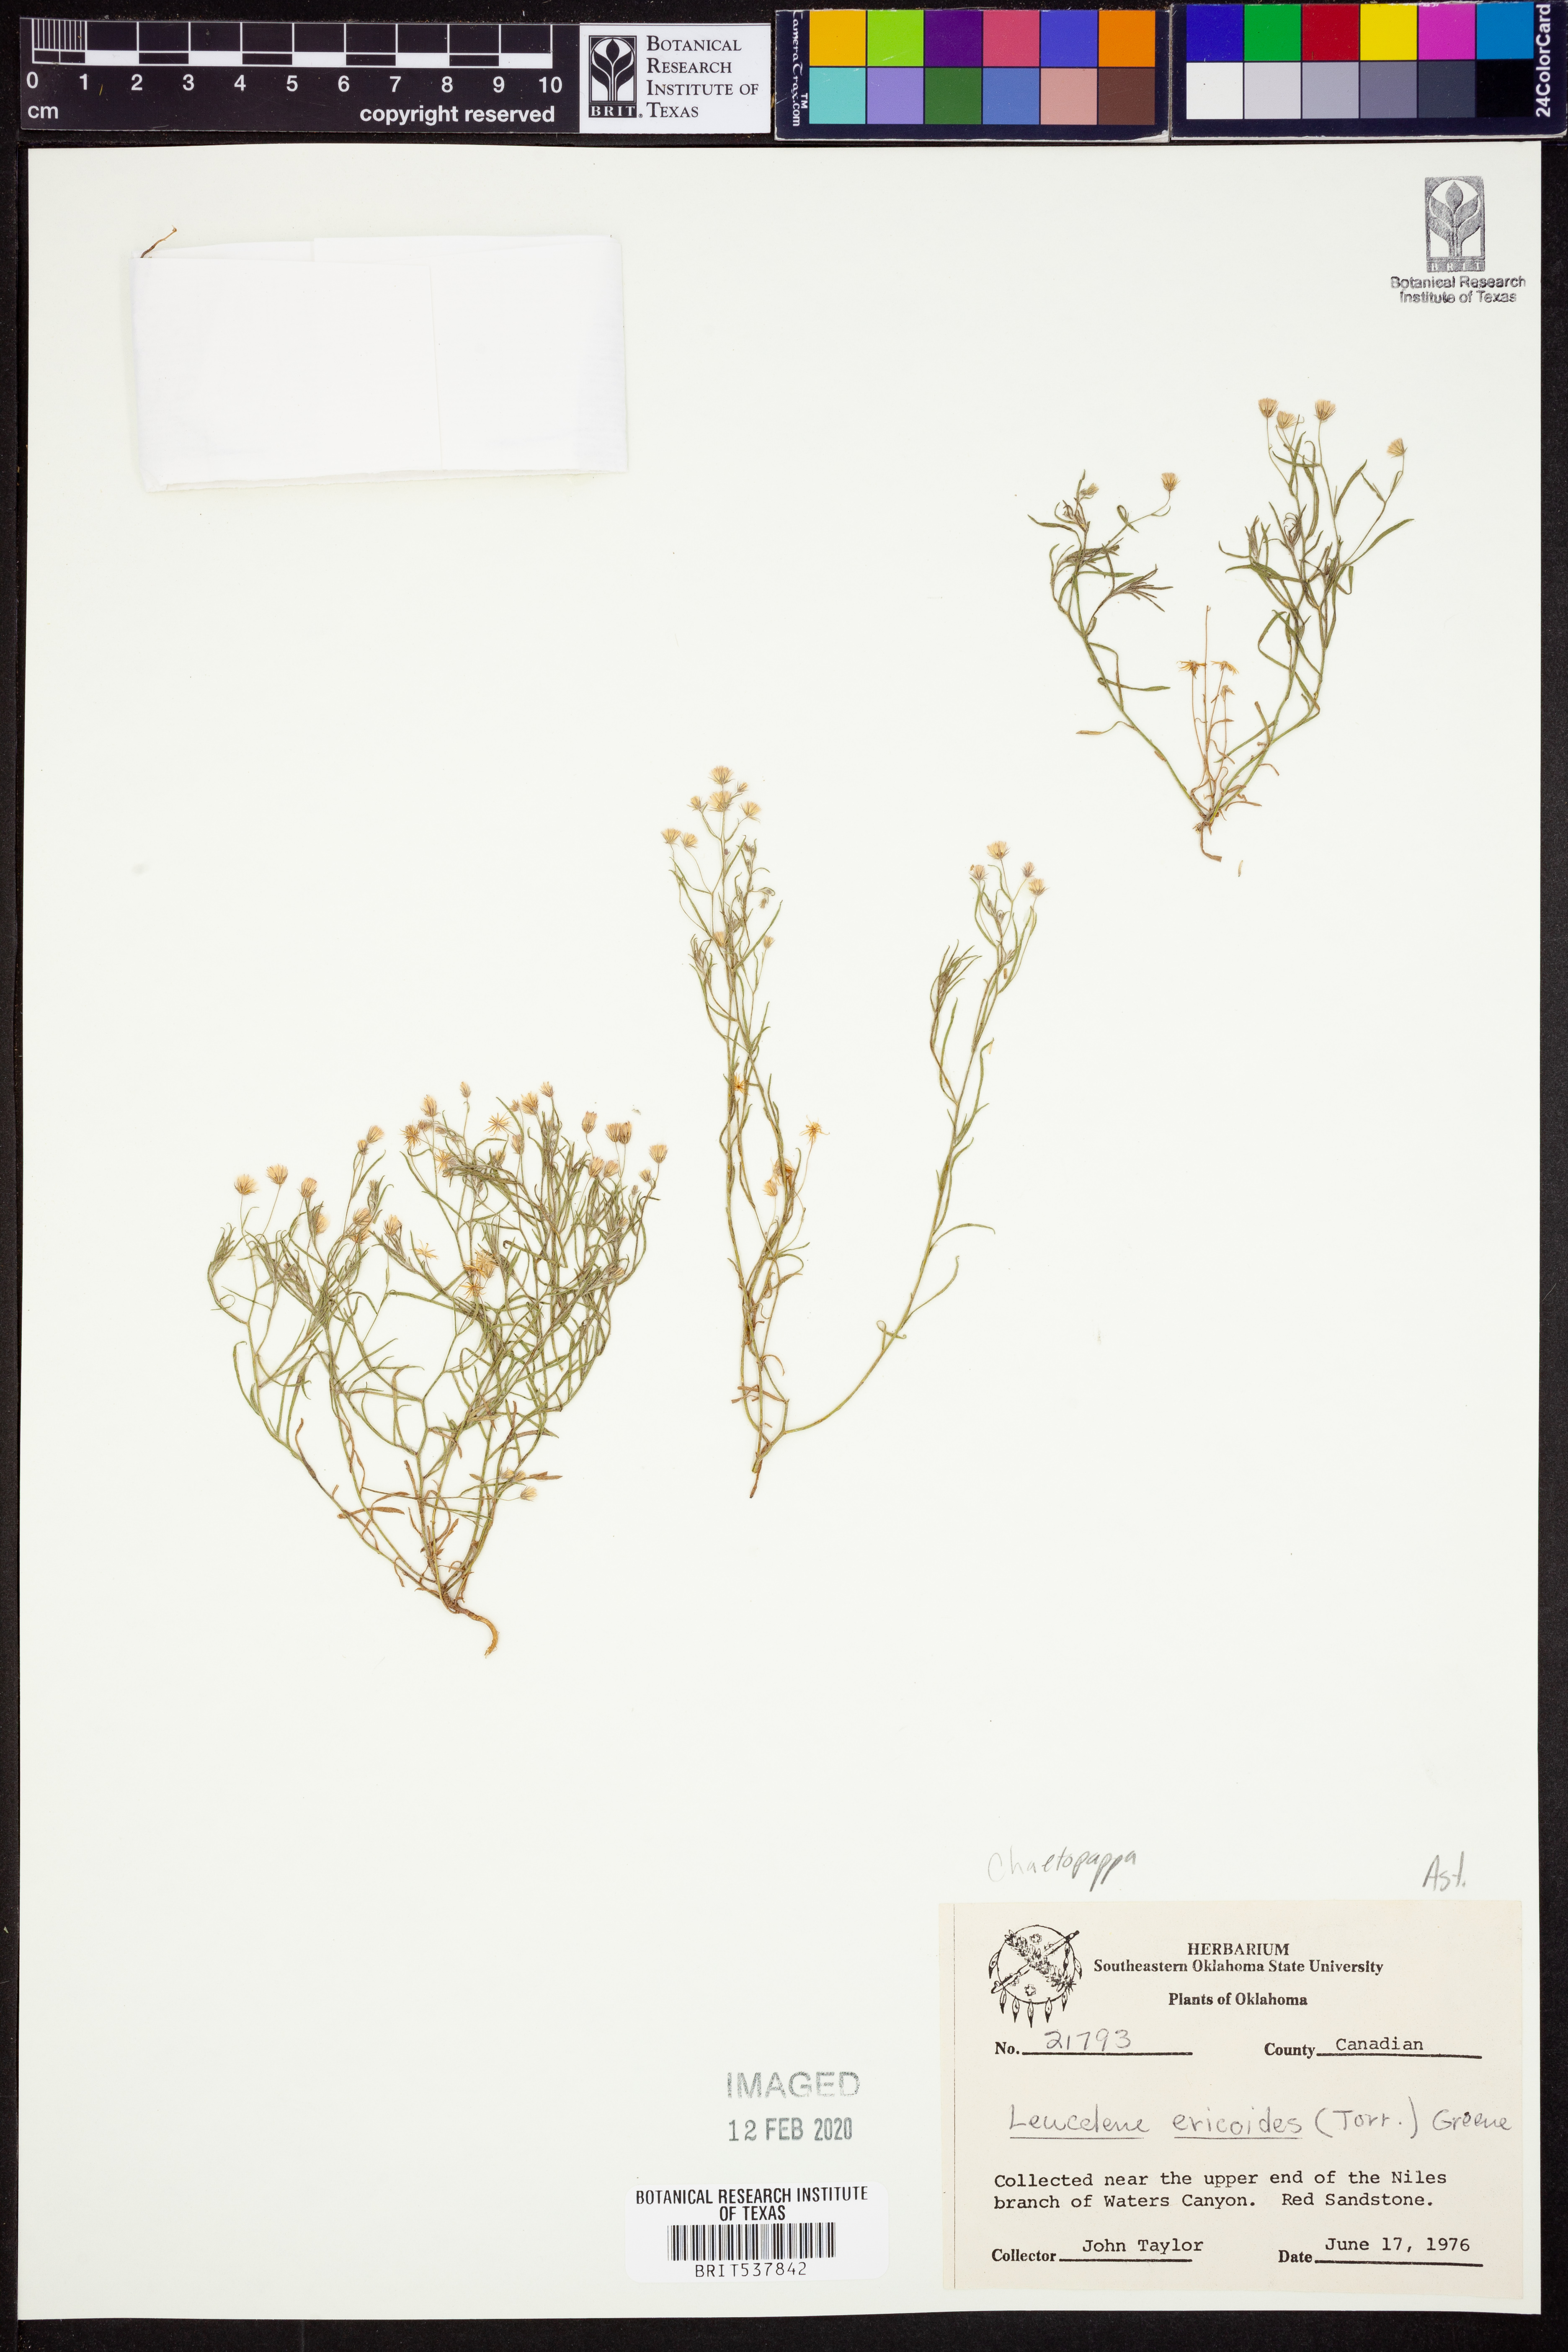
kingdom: Plantae
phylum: Tracheophyta
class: Magnoliopsida
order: Asterales
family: Asteraceae
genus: Chaetopappa
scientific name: Chaetopappa ericoides
